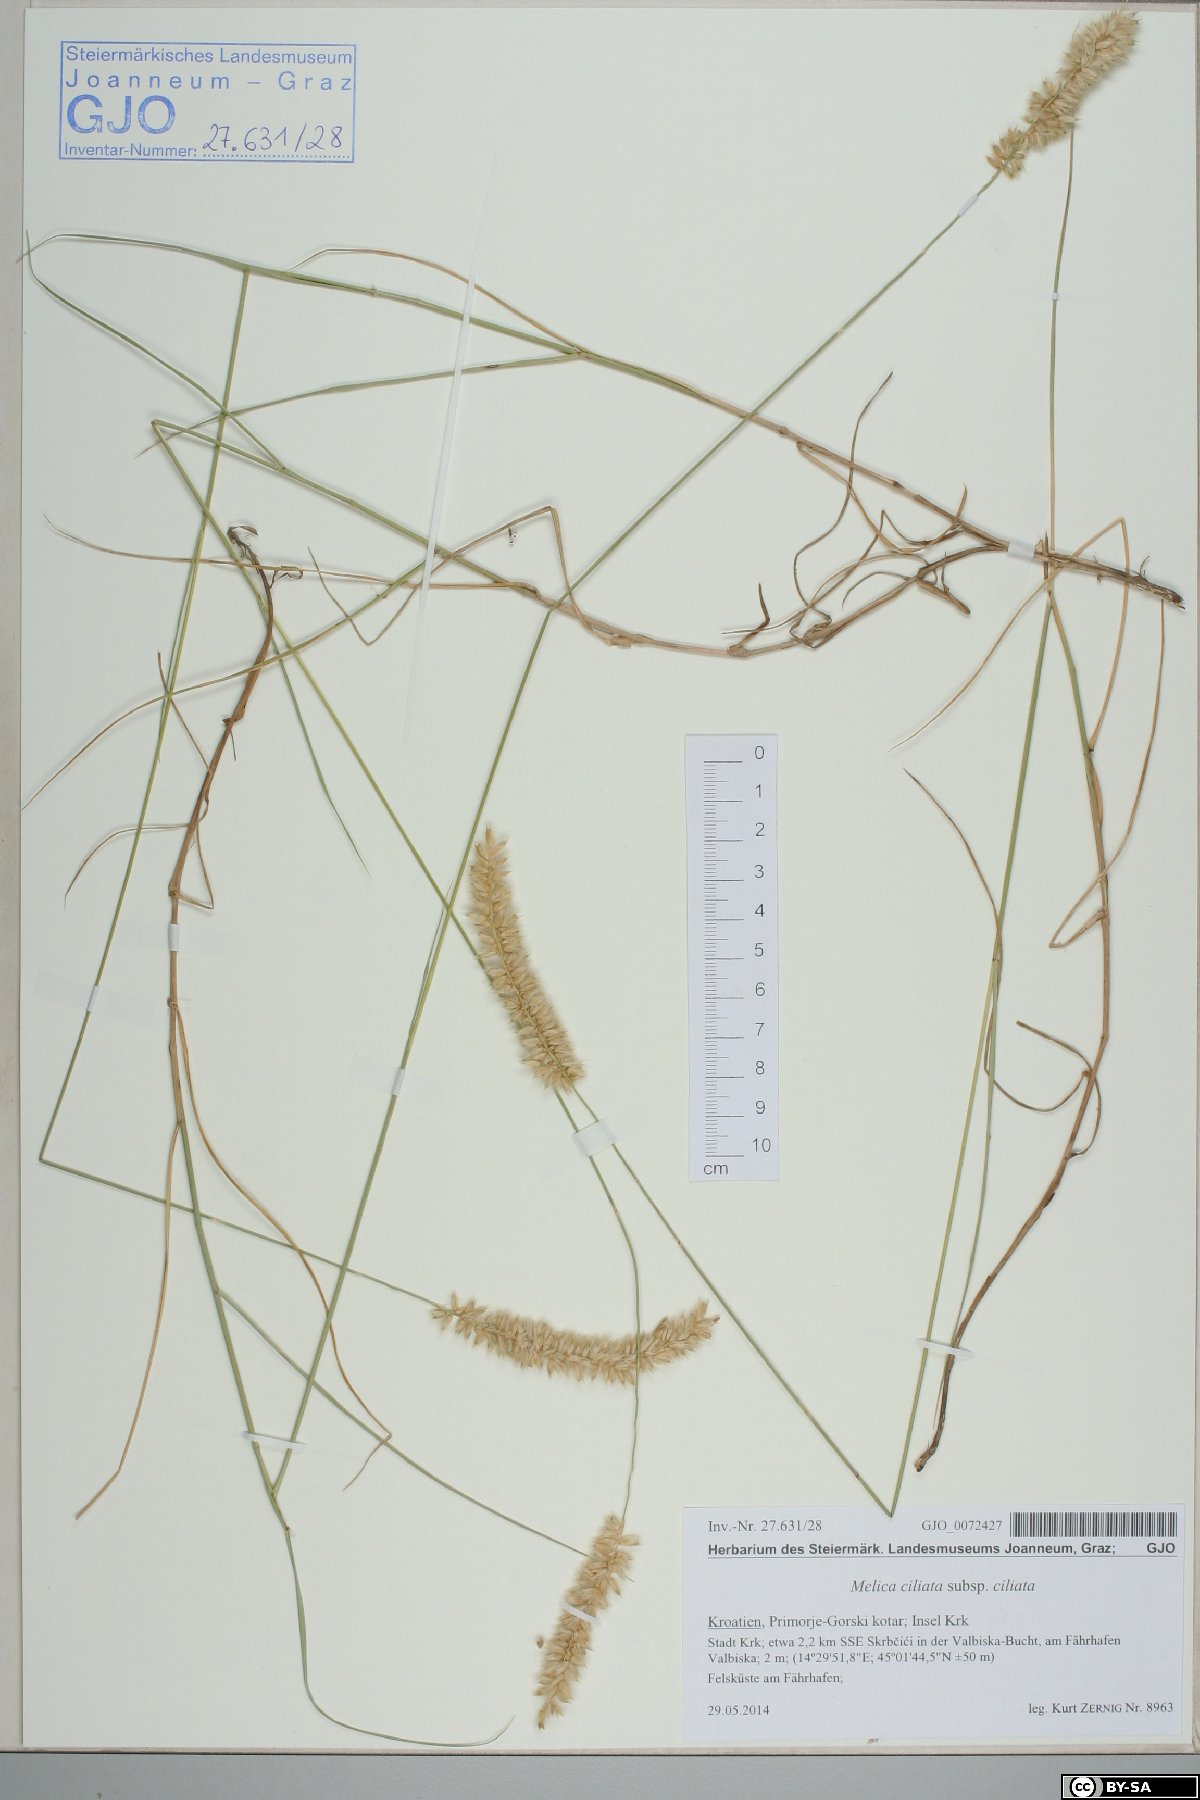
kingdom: Plantae
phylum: Tracheophyta
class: Liliopsida
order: Poales
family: Poaceae
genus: Melica
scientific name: Melica ciliata
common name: Hairy melicgrass
